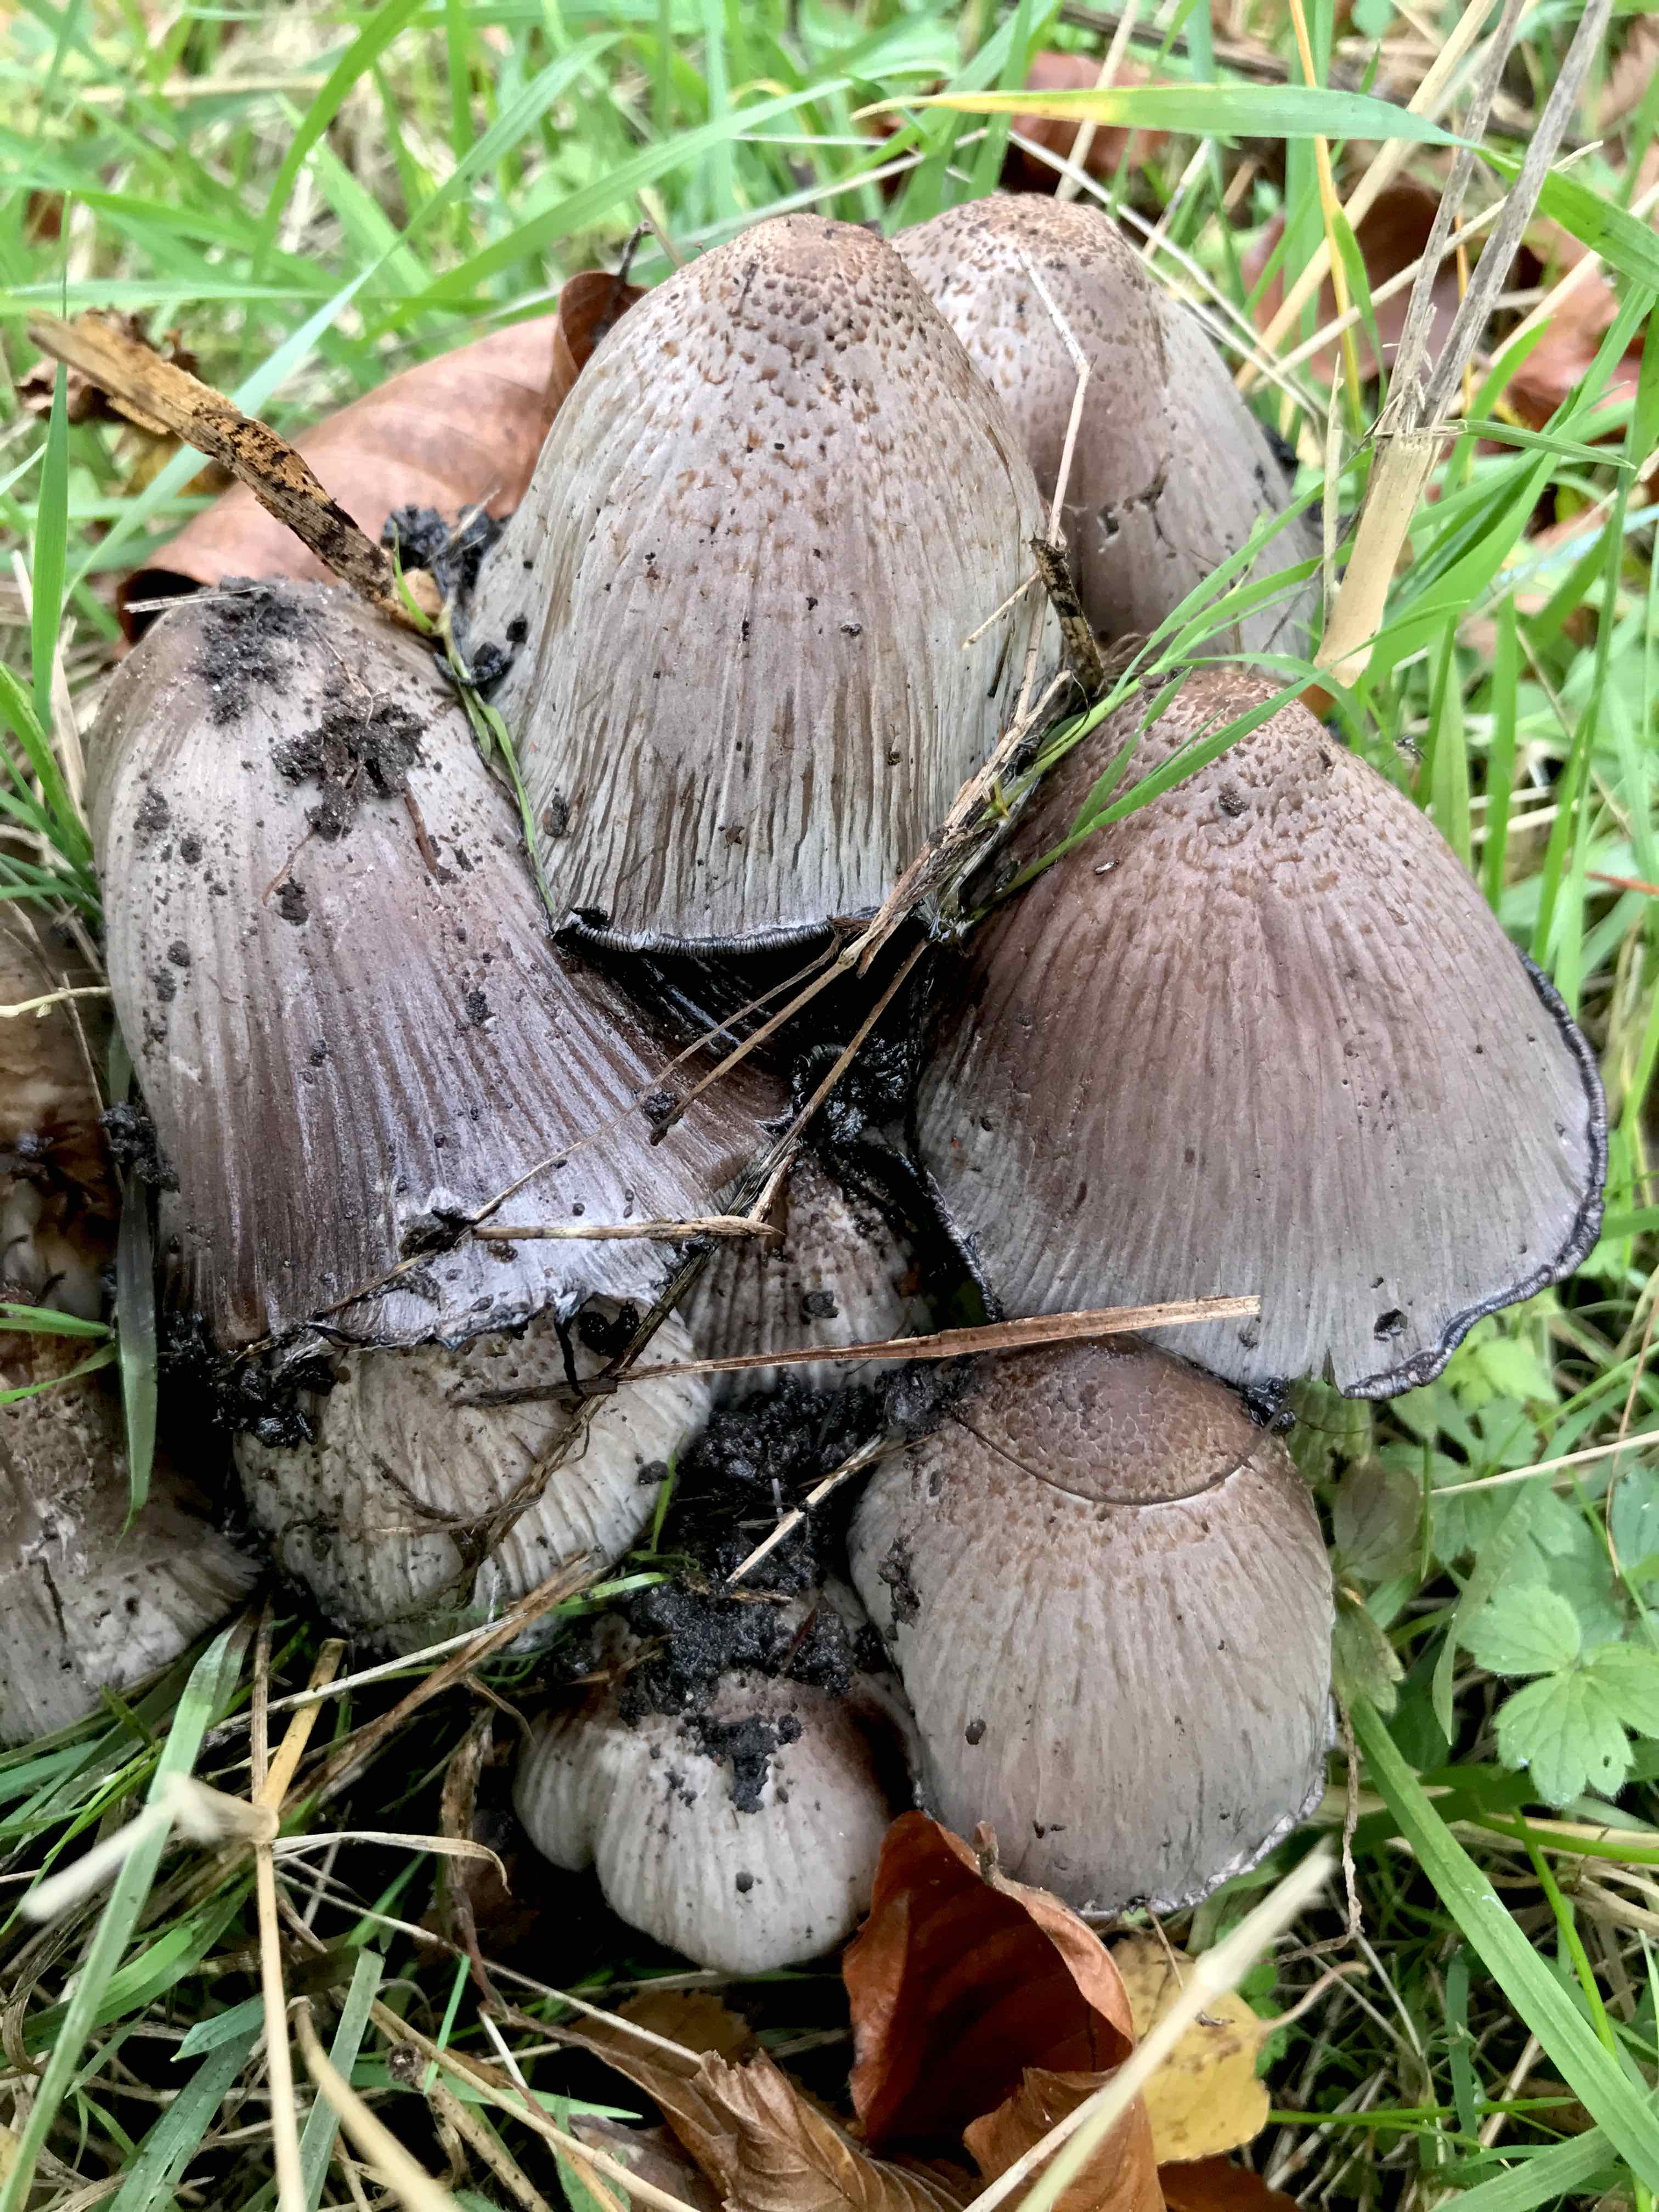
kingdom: Fungi
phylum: Basidiomycota
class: Agaricomycetes
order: Agaricales
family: Psathyrellaceae
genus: Coprinopsis
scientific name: Coprinopsis atramentaria
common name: almindelig blækhat
